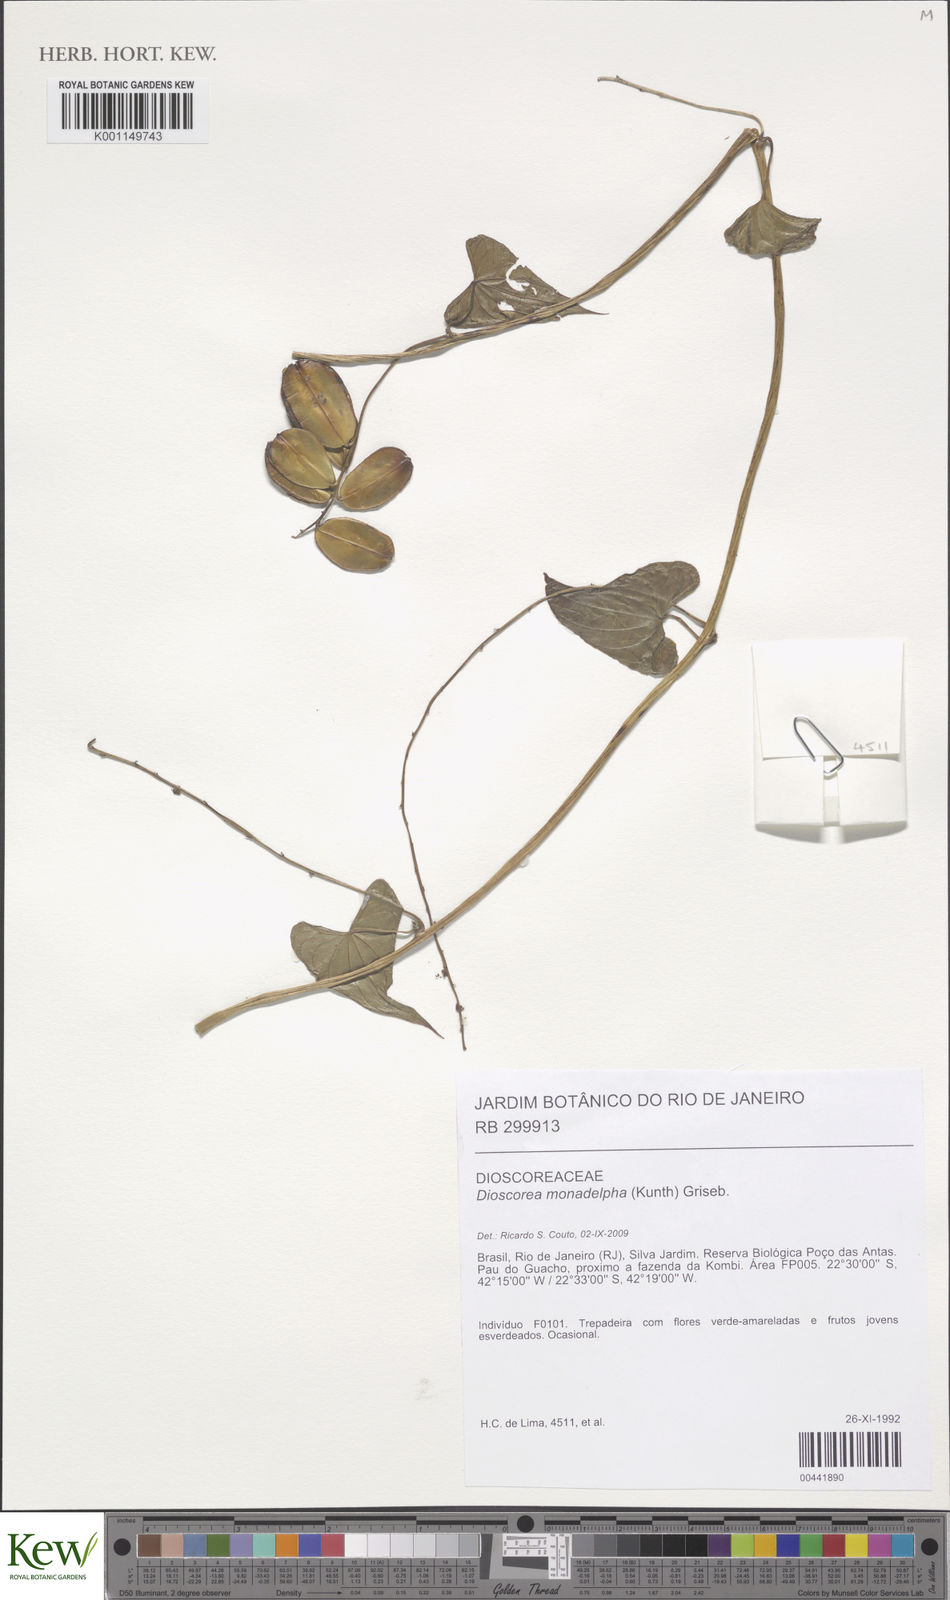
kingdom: Plantae
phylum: Tracheophyta
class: Liliopsida
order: Dioscoreales
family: Dioscoreaceae
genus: Dioscorea
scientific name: Dioscorea monadelpha
